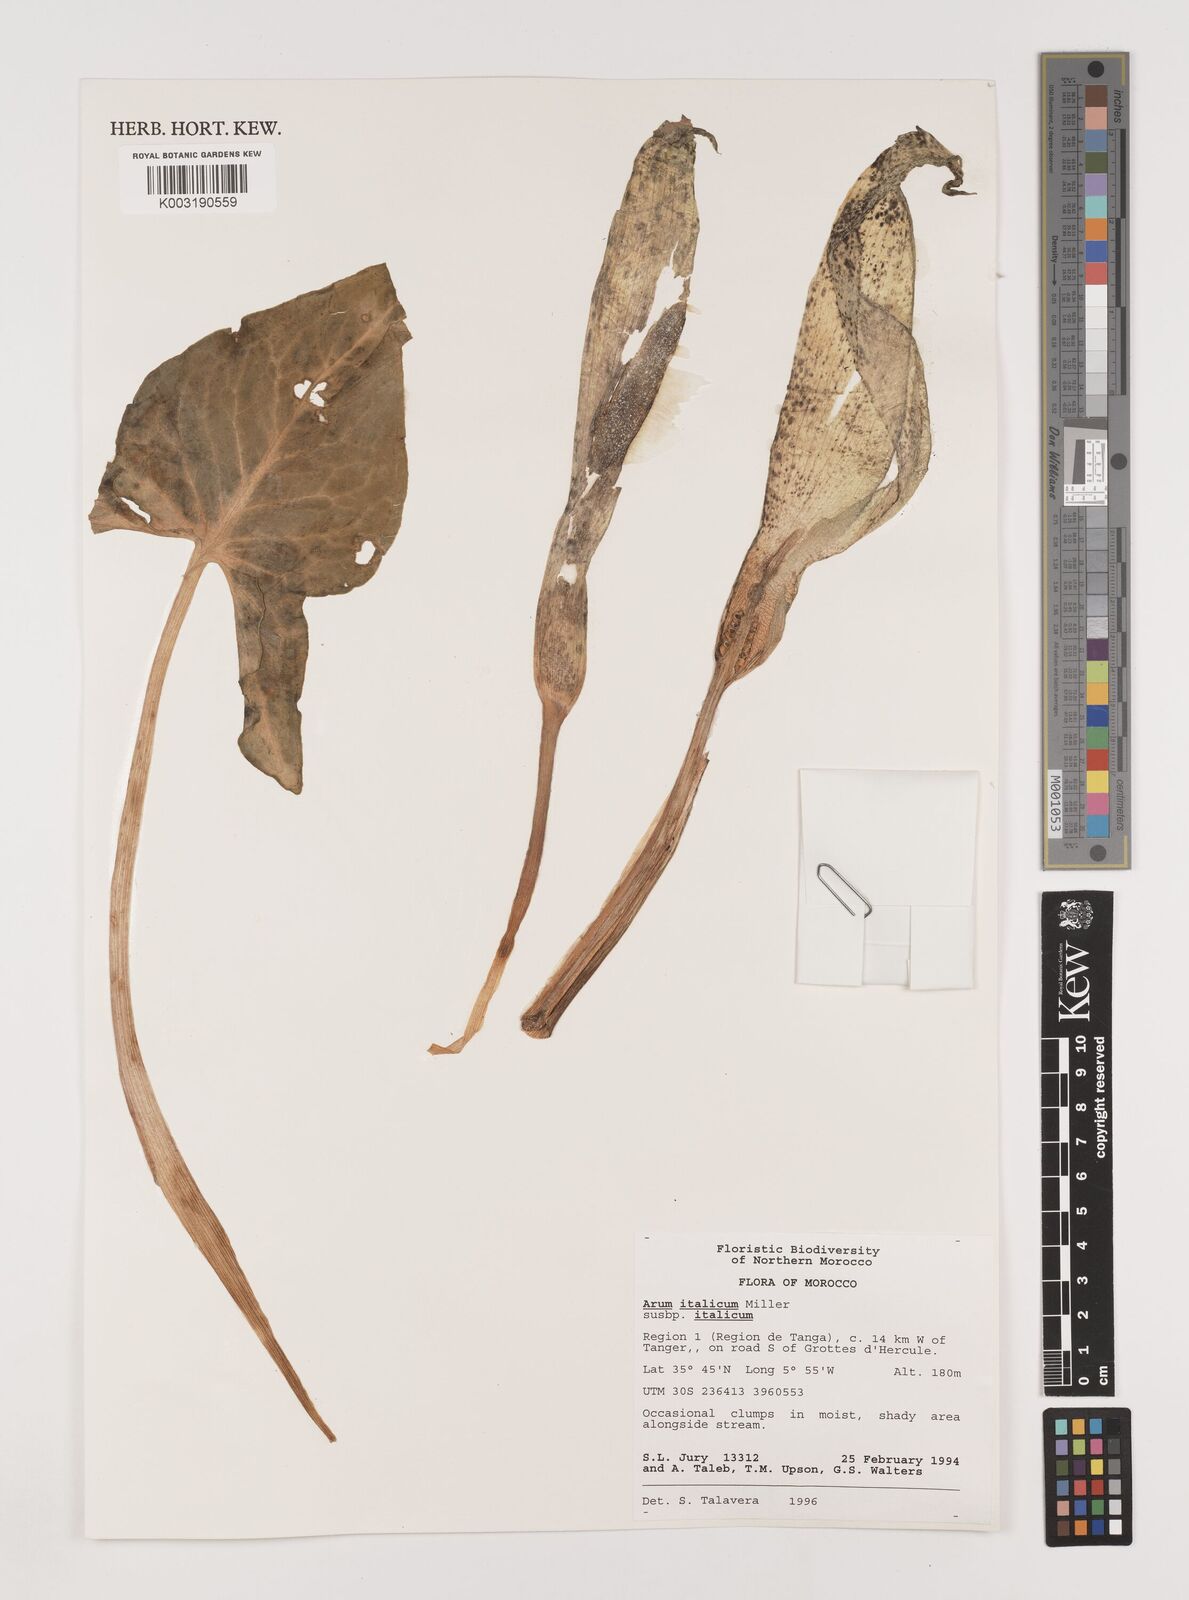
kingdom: Plantae
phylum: Tracheophyta
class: Liliopsida
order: Alismatales
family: Araceae
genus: Arum
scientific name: Arum italicum
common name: Italian lords-and-ladies
